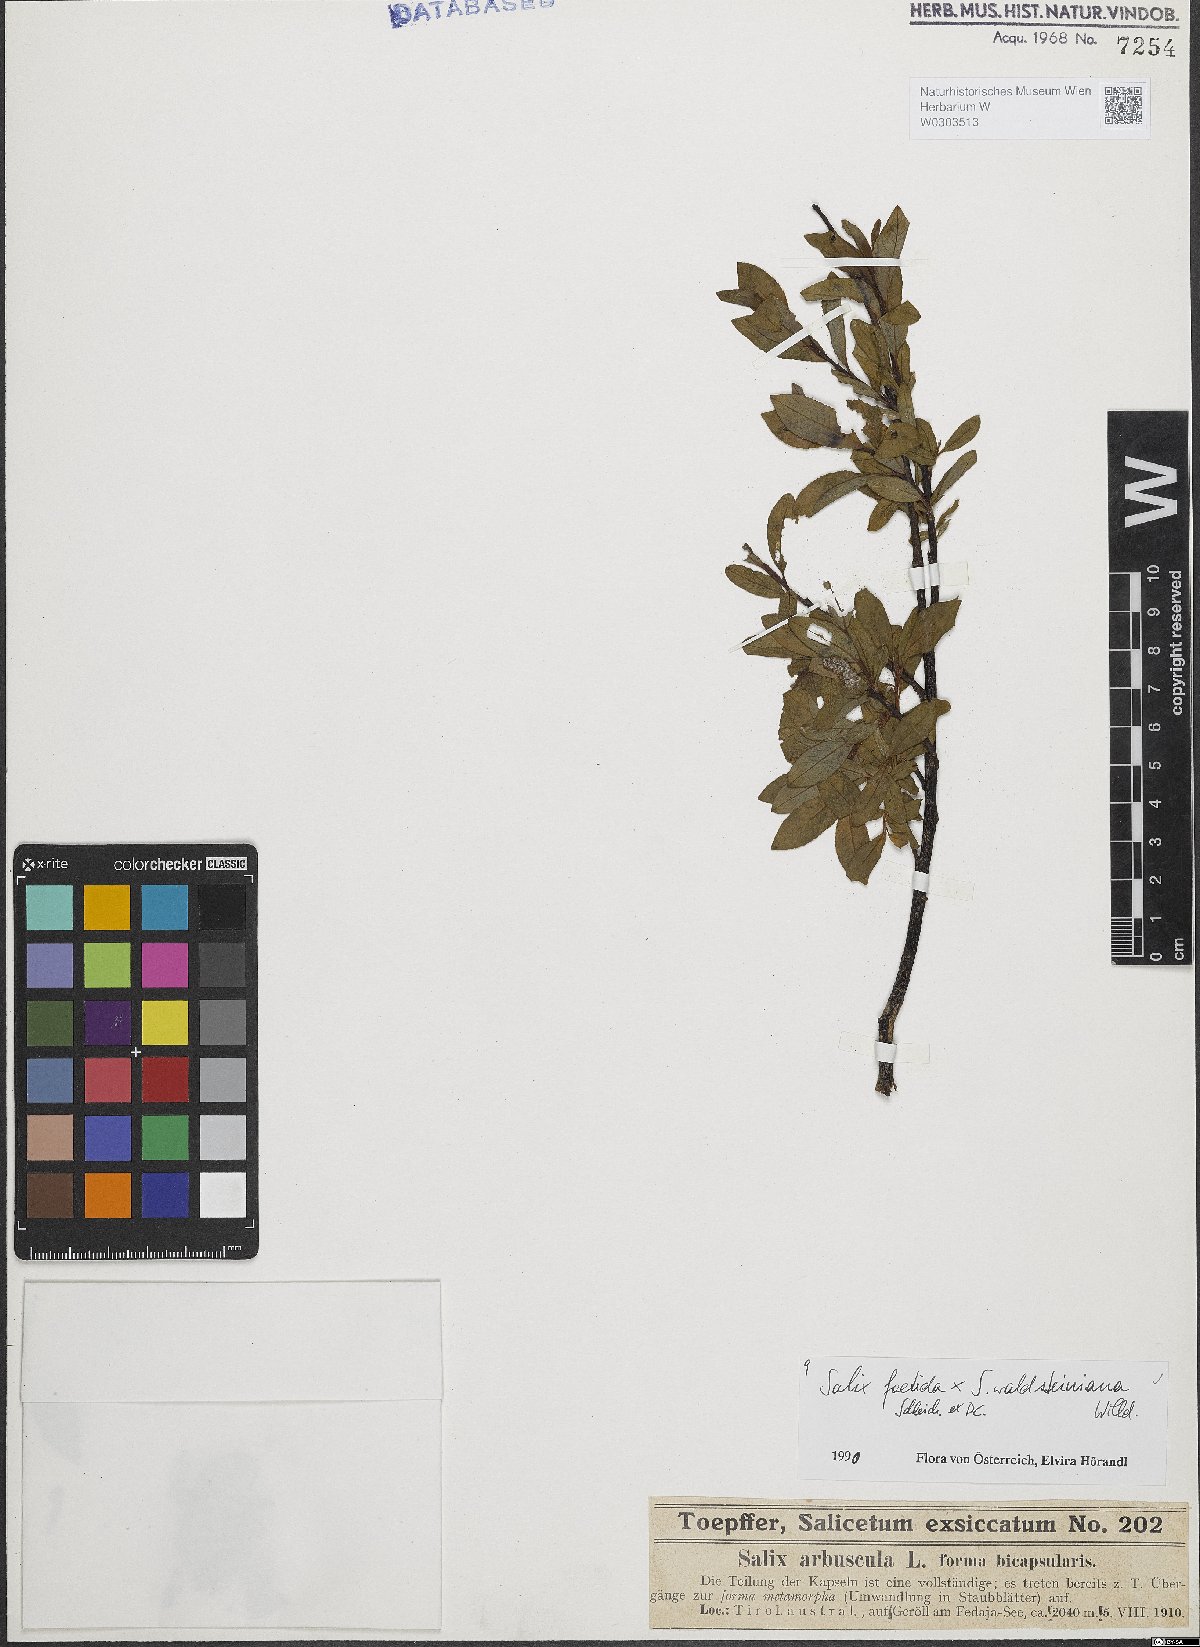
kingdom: Plantae
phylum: Tracheophyta
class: Magnoliopsida
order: Malpighiales
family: Salicaceae
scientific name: Salicaceae
